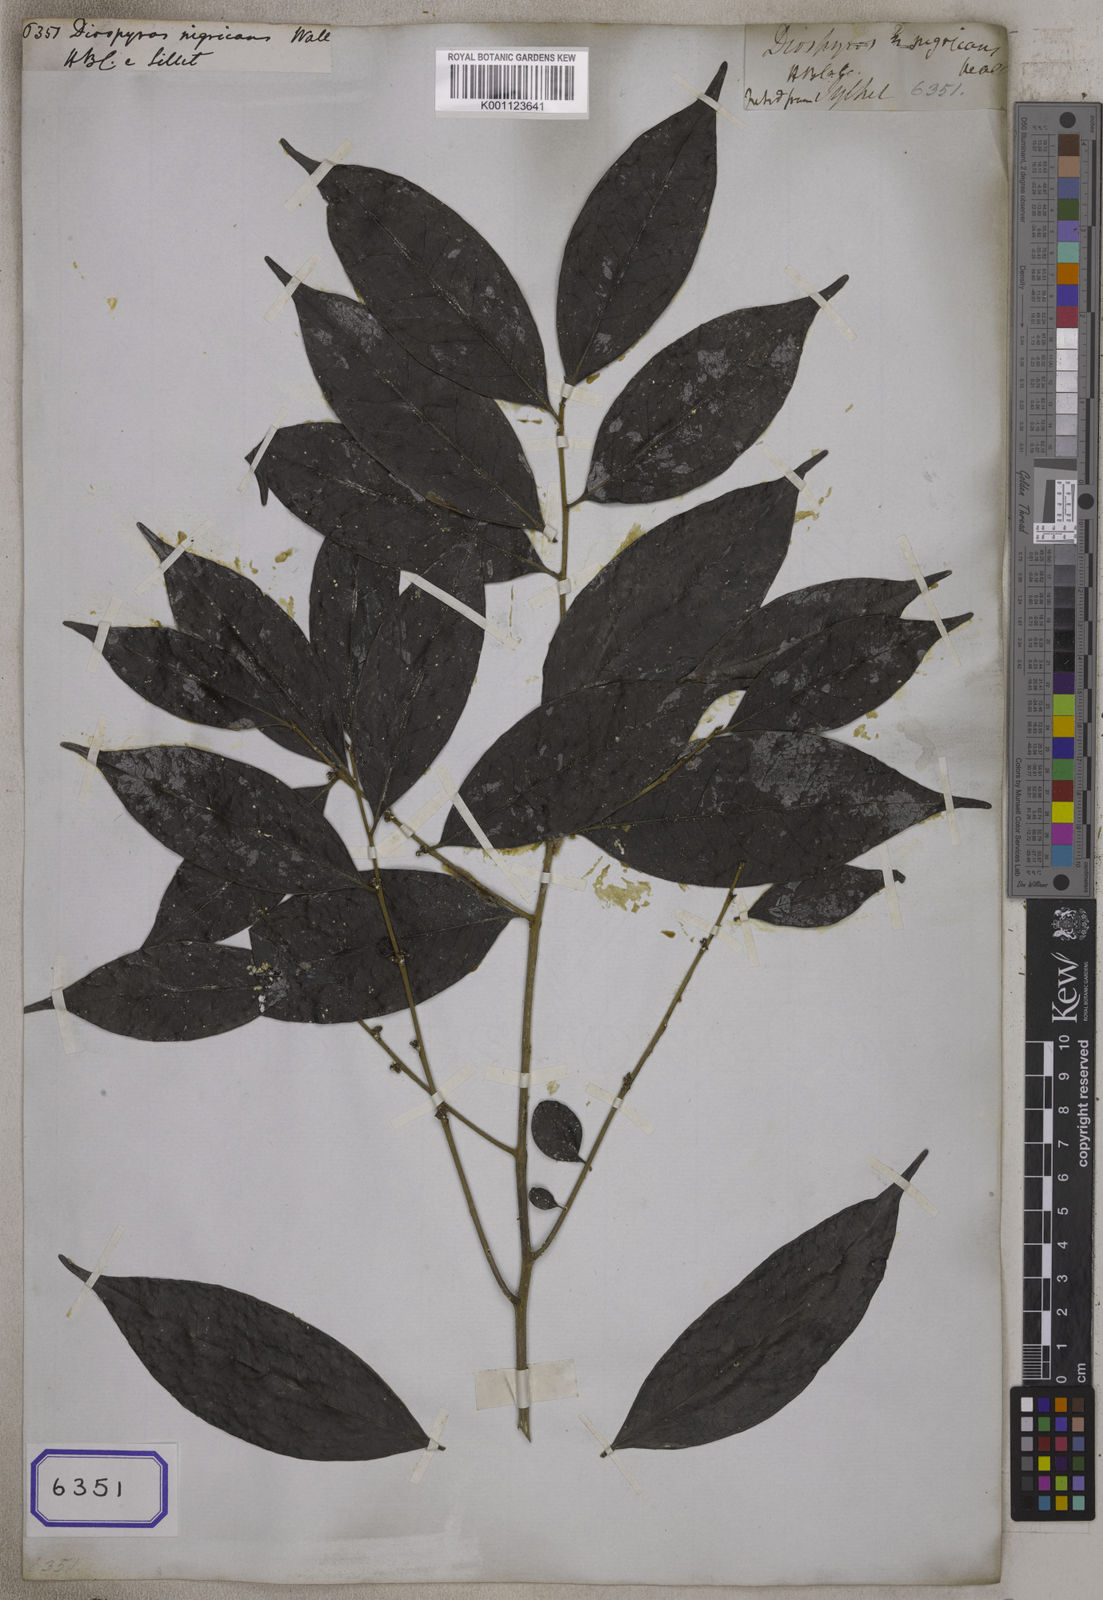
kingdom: Plantae
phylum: Tracheophyta
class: Magnoliopsida
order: Ericales
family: Ebenaceae
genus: Diospyros
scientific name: Diospyros
